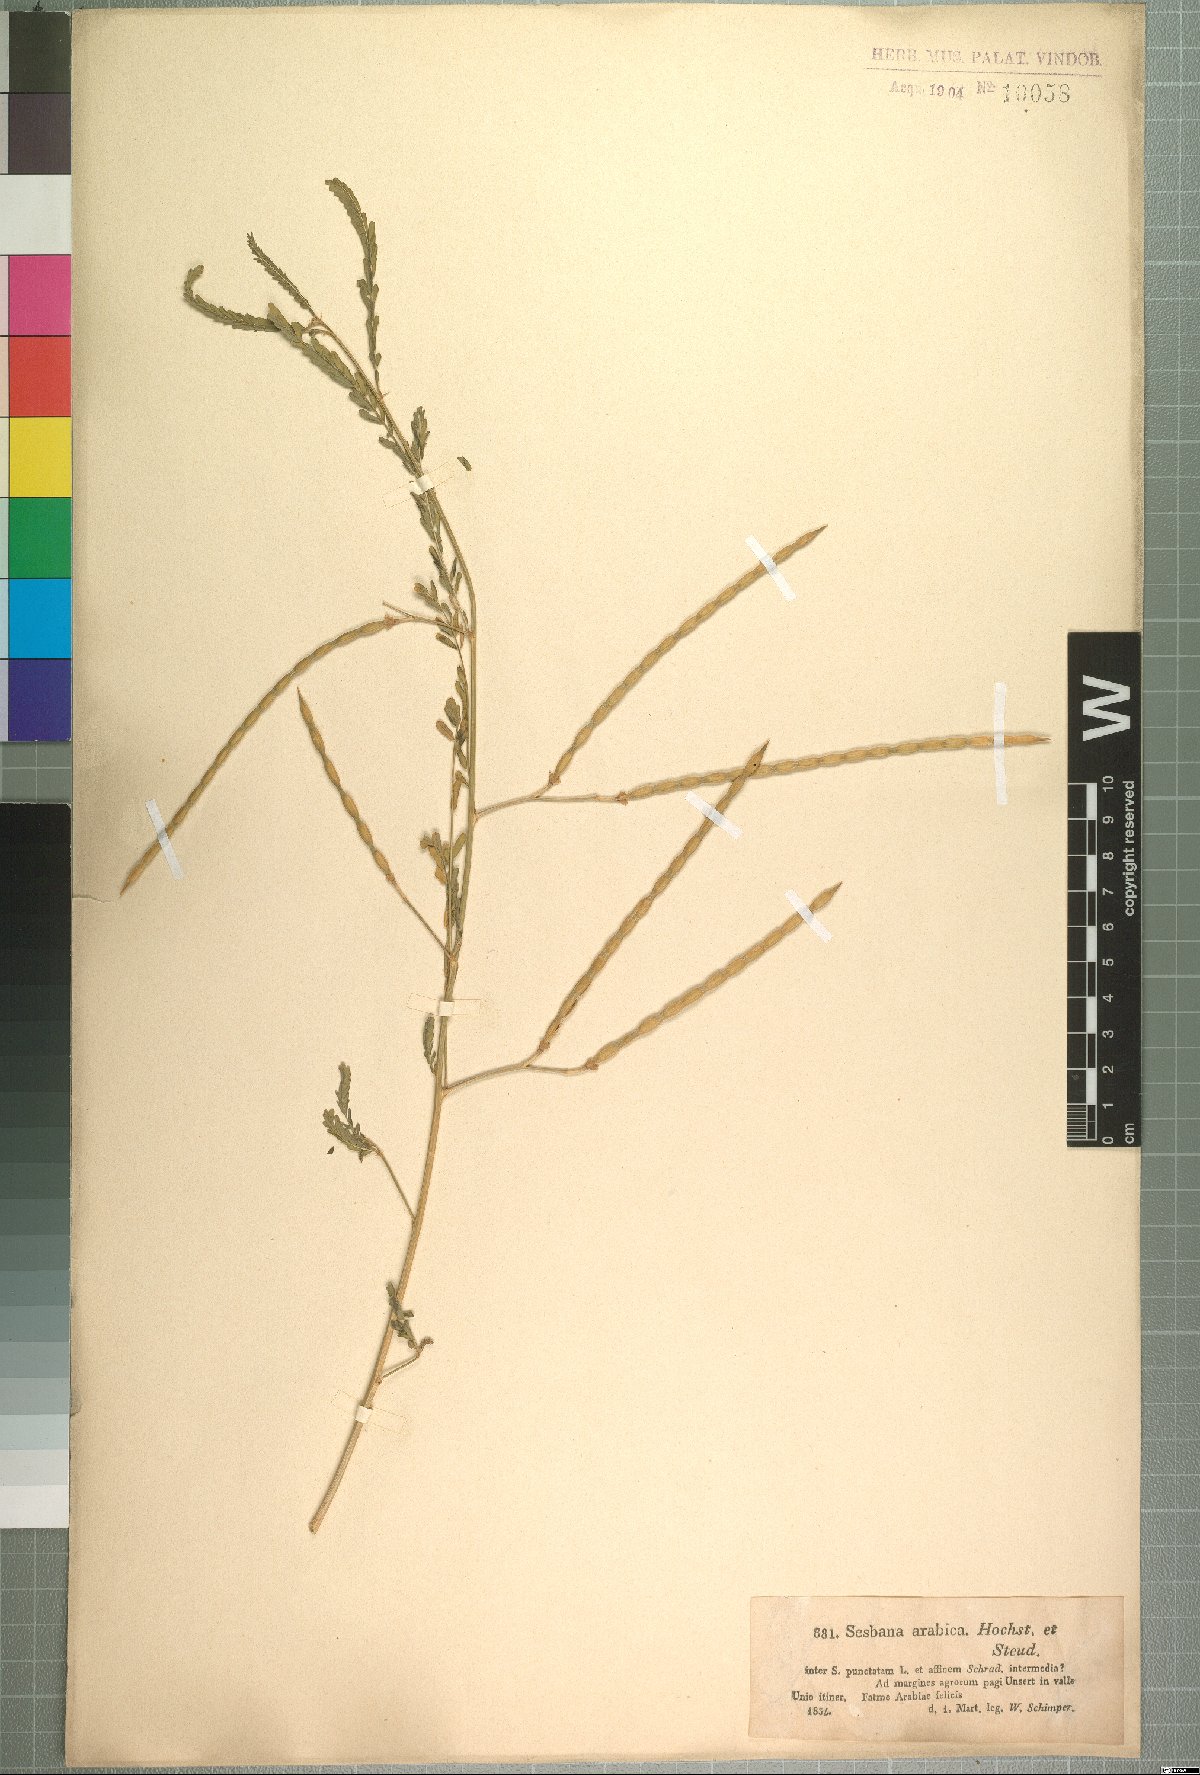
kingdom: Plantae
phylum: Tracheophyta
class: Magnoliopsida
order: Fabales
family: Fabaceae
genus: Sesbania
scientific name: Sesbania leptocarpa
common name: Riverhemp
